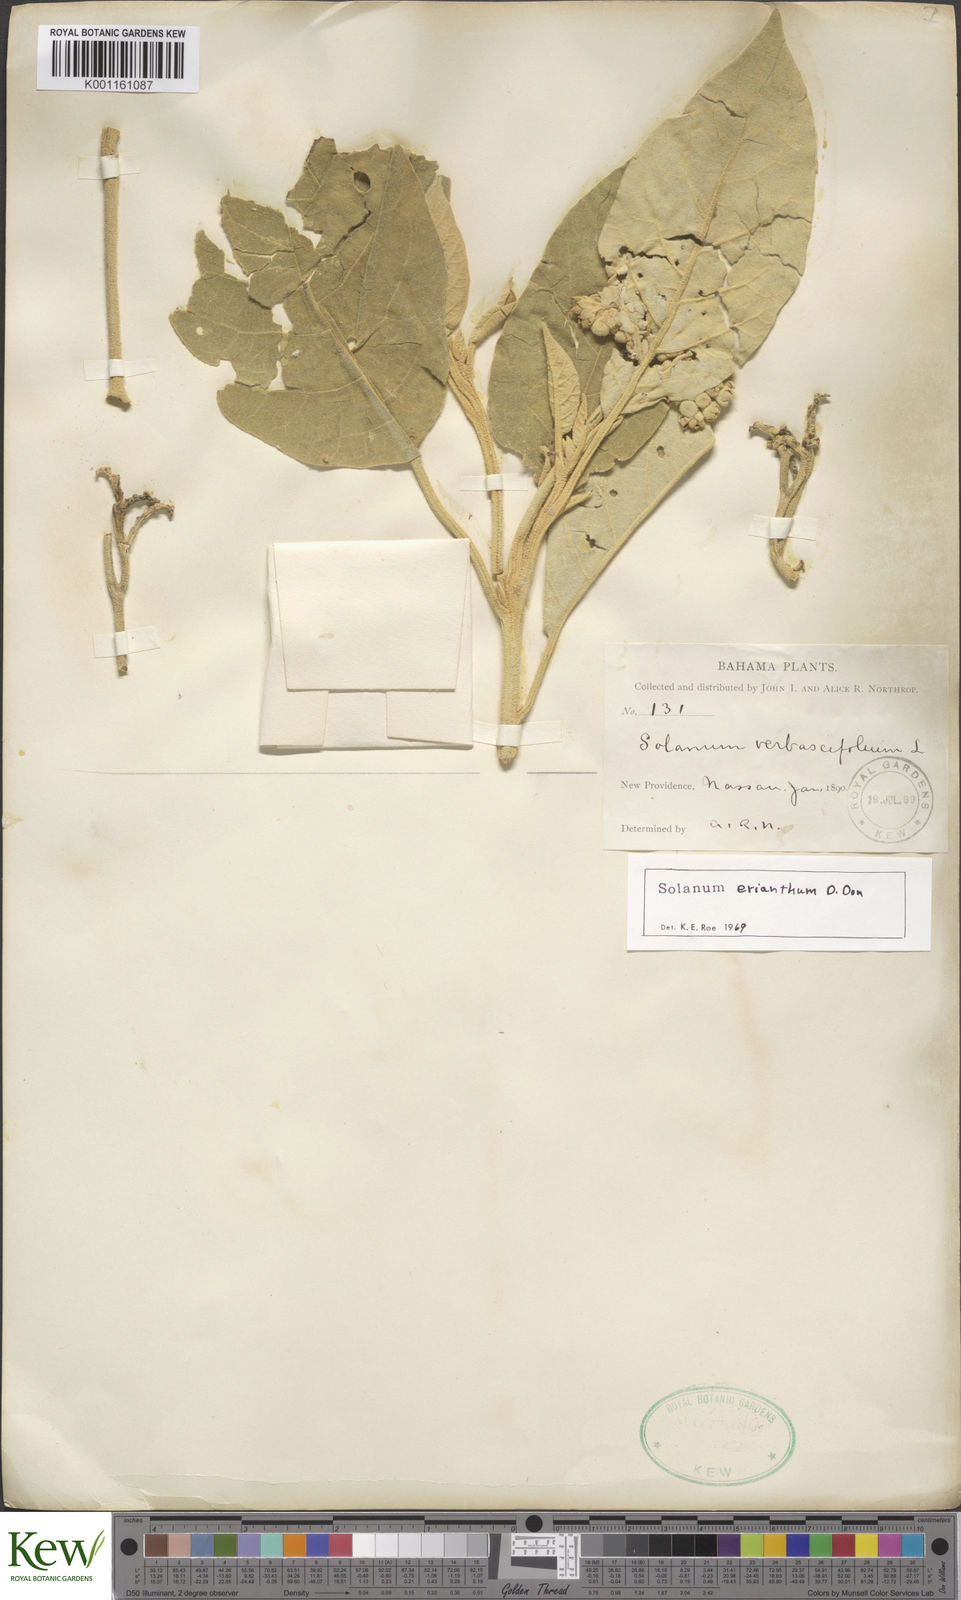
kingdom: Plantae
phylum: Tracheophyta
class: Magnoliopsida
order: Solanales
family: Solanaceae
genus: Solanum
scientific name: Solanum erianthum
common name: Tobacco-tree
